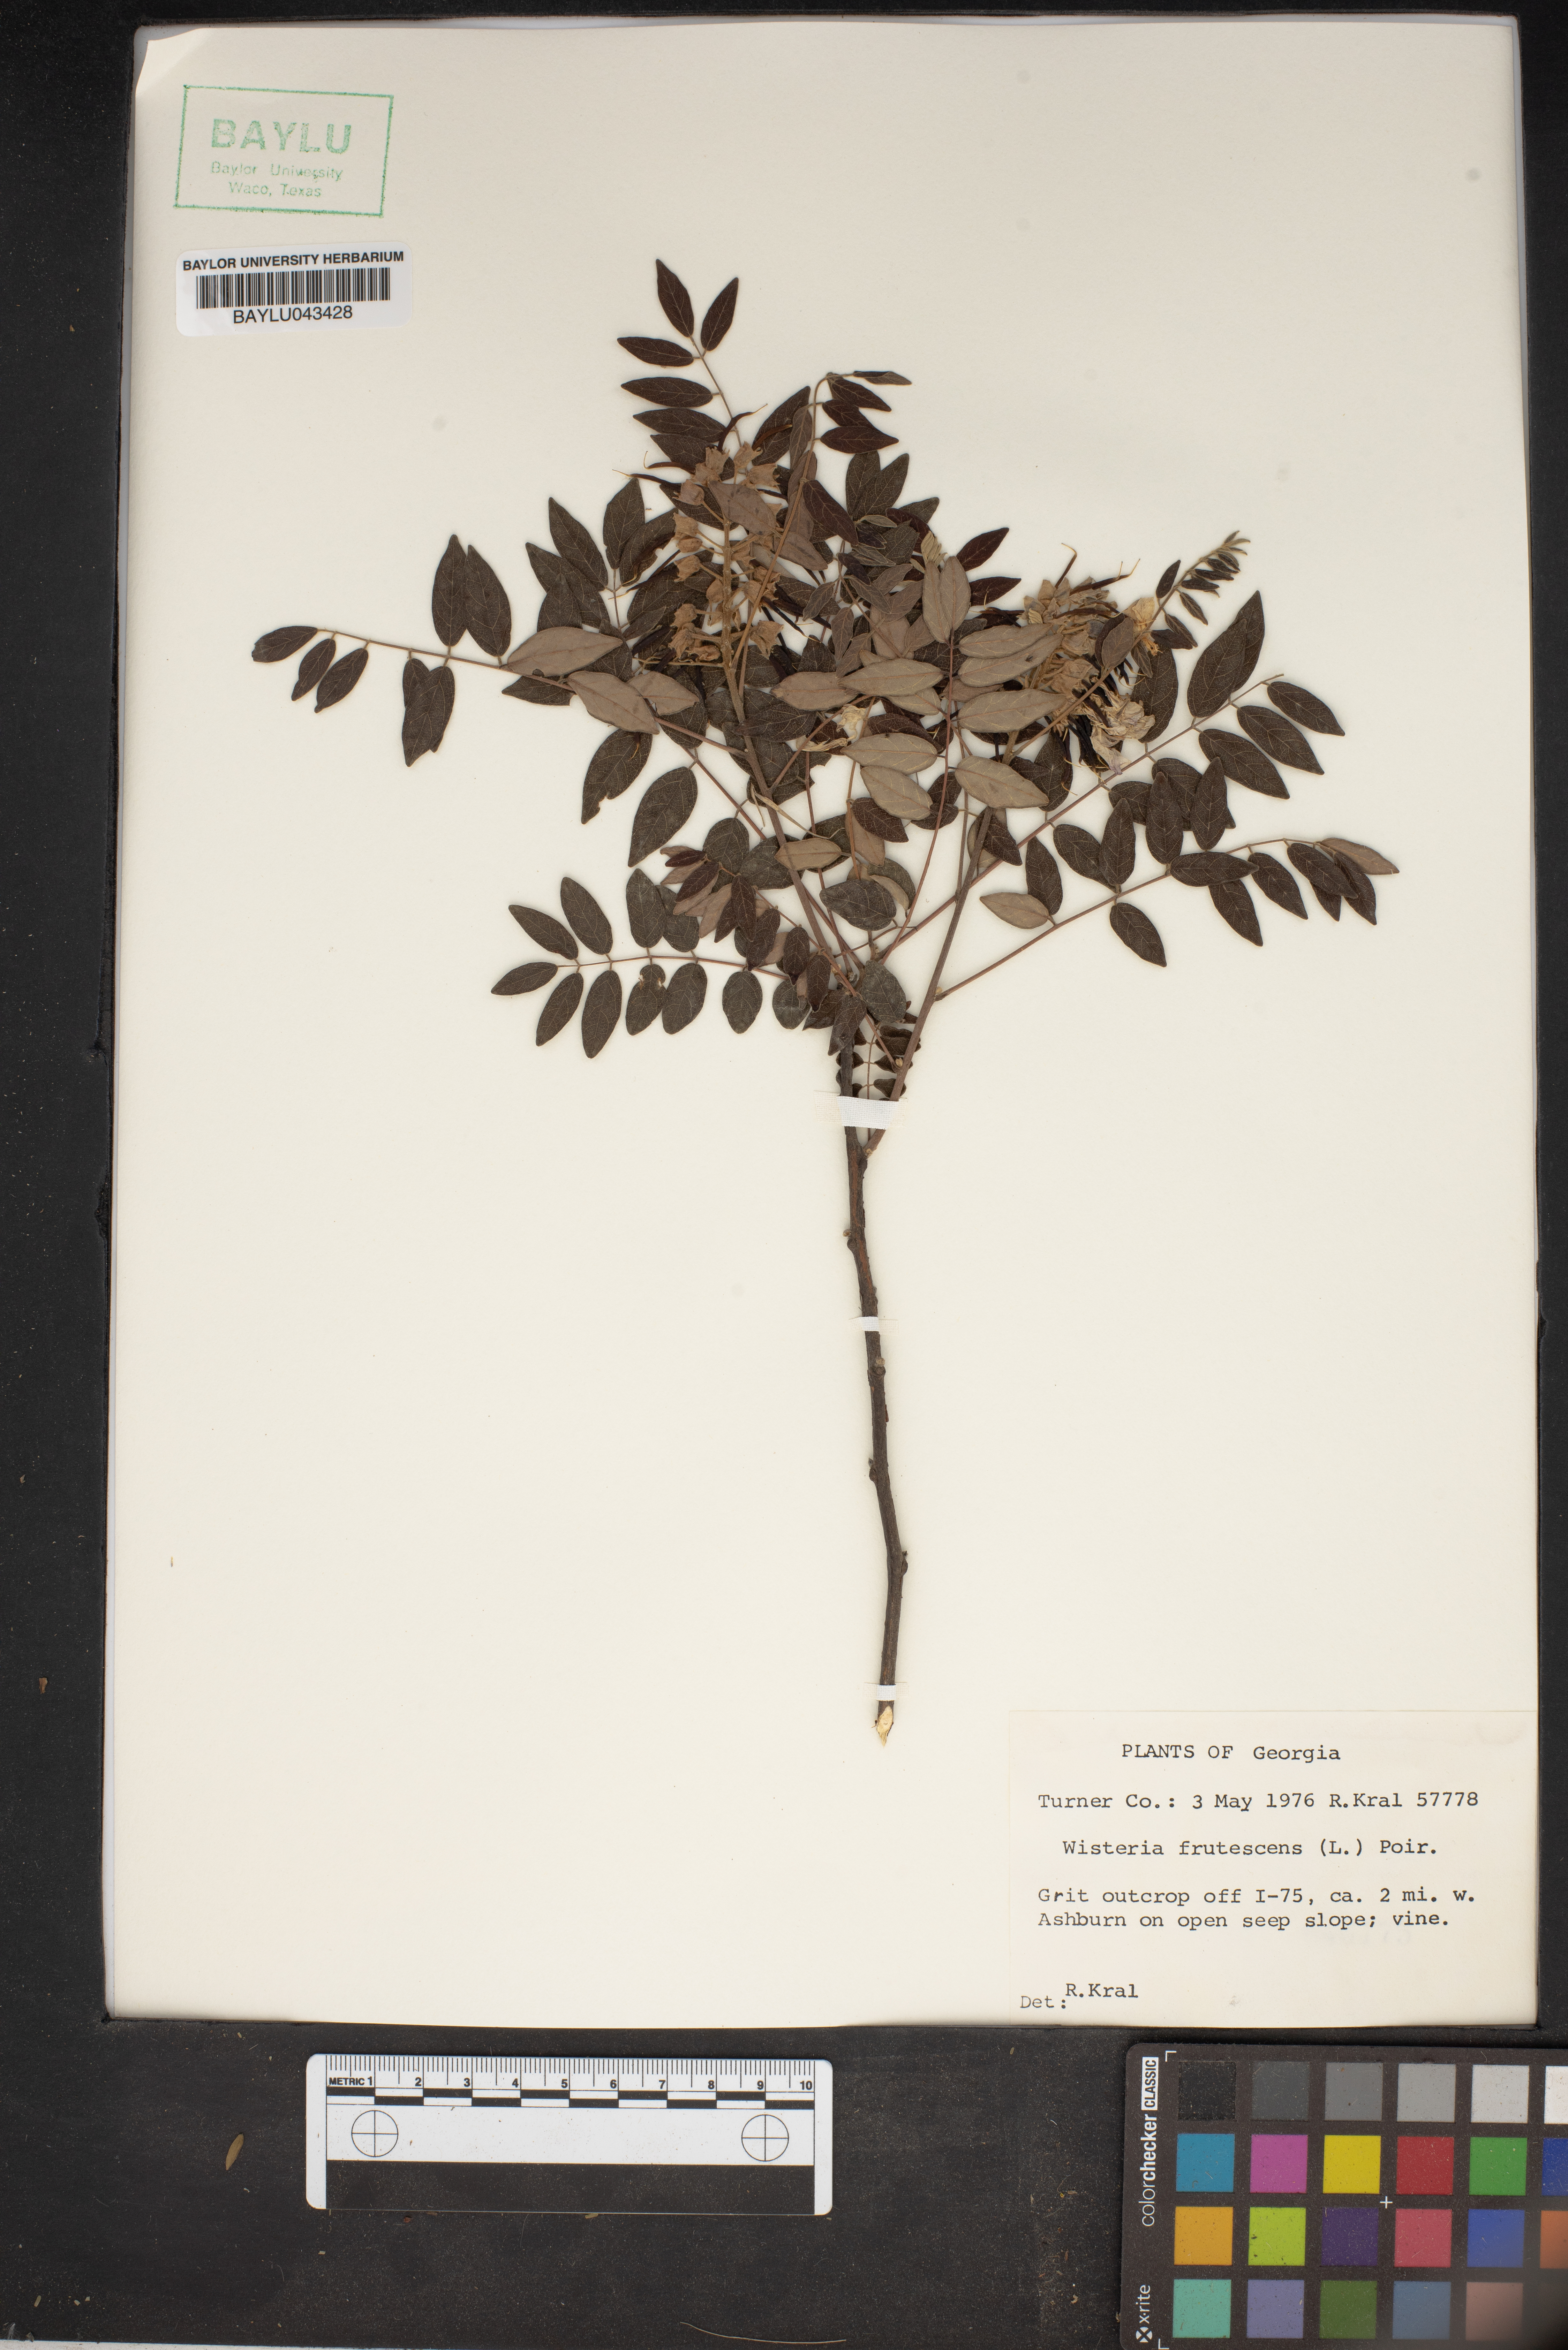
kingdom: Plantae
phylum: Tracheophyta
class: Magnoliopsida
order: Fabales
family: Fabaceae
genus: Wisteria
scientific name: Wisteria frutescens
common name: American wisteria
